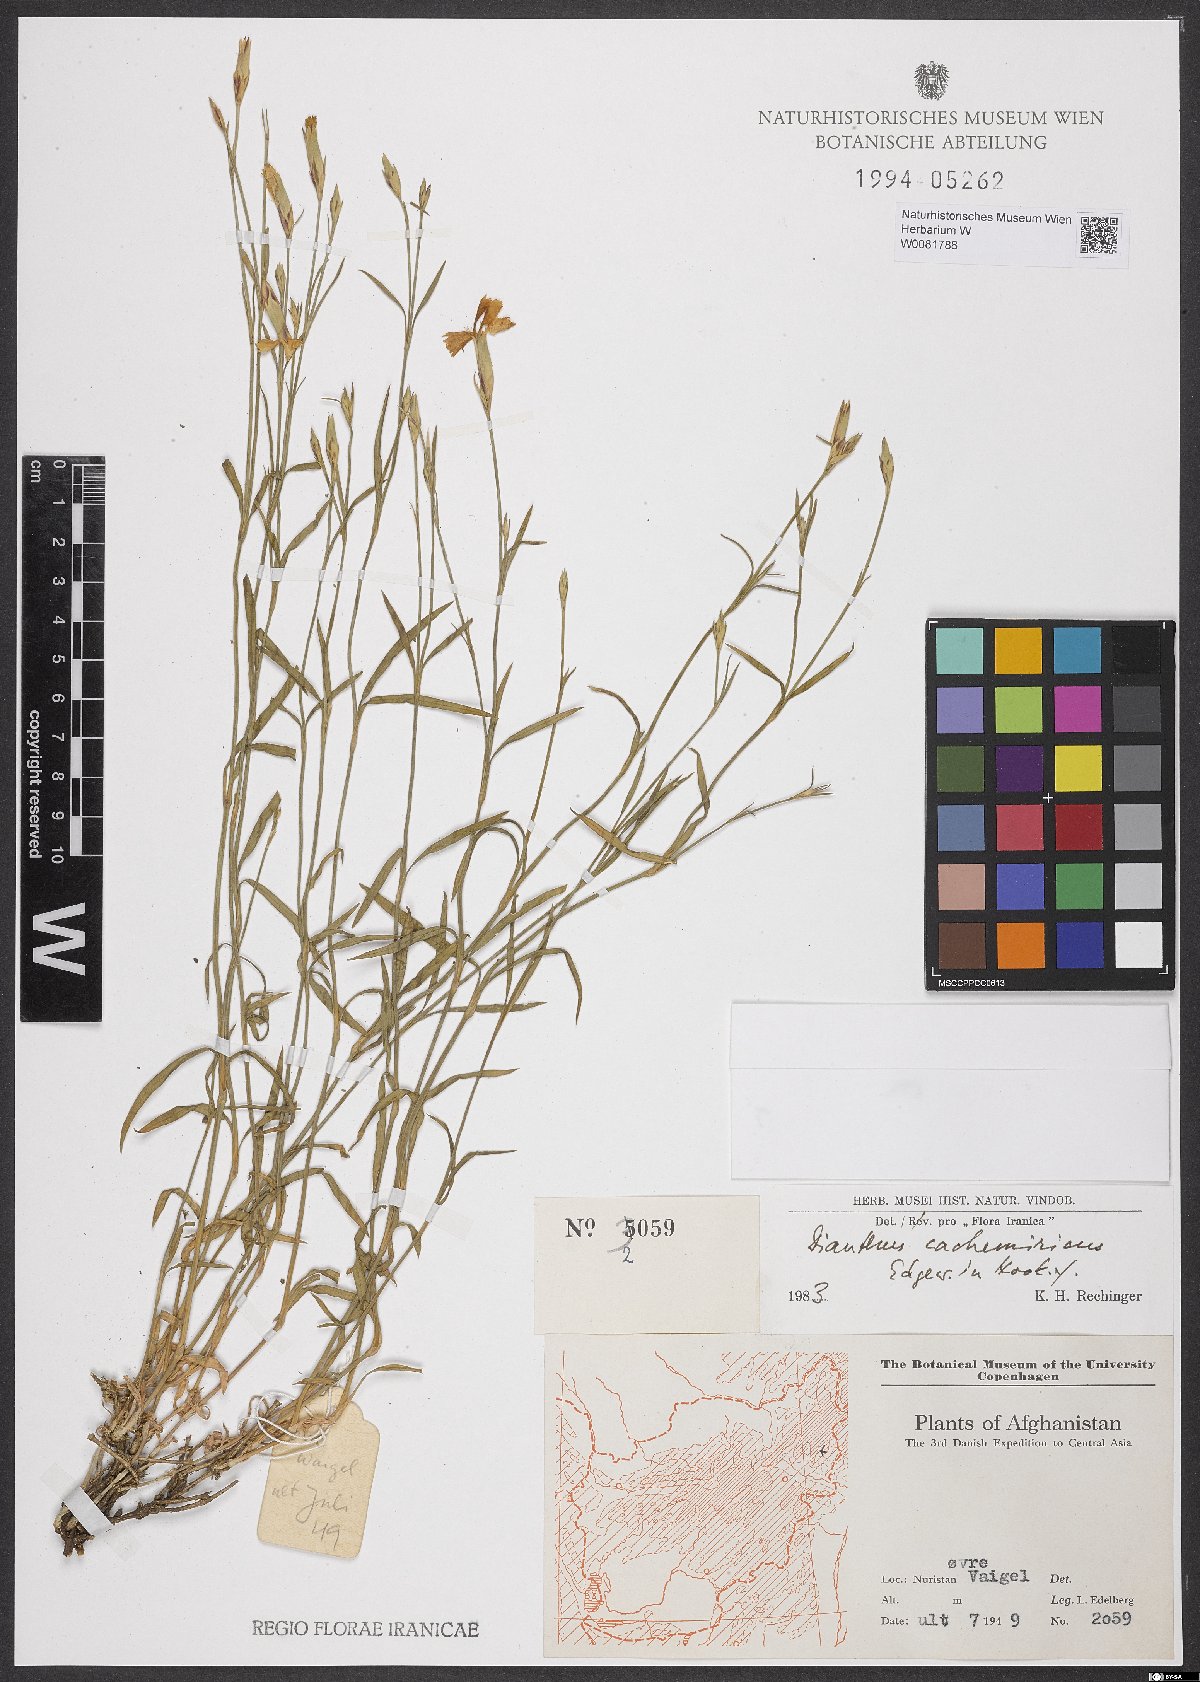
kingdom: Plantae
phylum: Tracheophyta
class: Magnoliopsida
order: Caryophyllales
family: Caryophyllaceae
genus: Dianthus
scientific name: Dianthus cachemiricus
